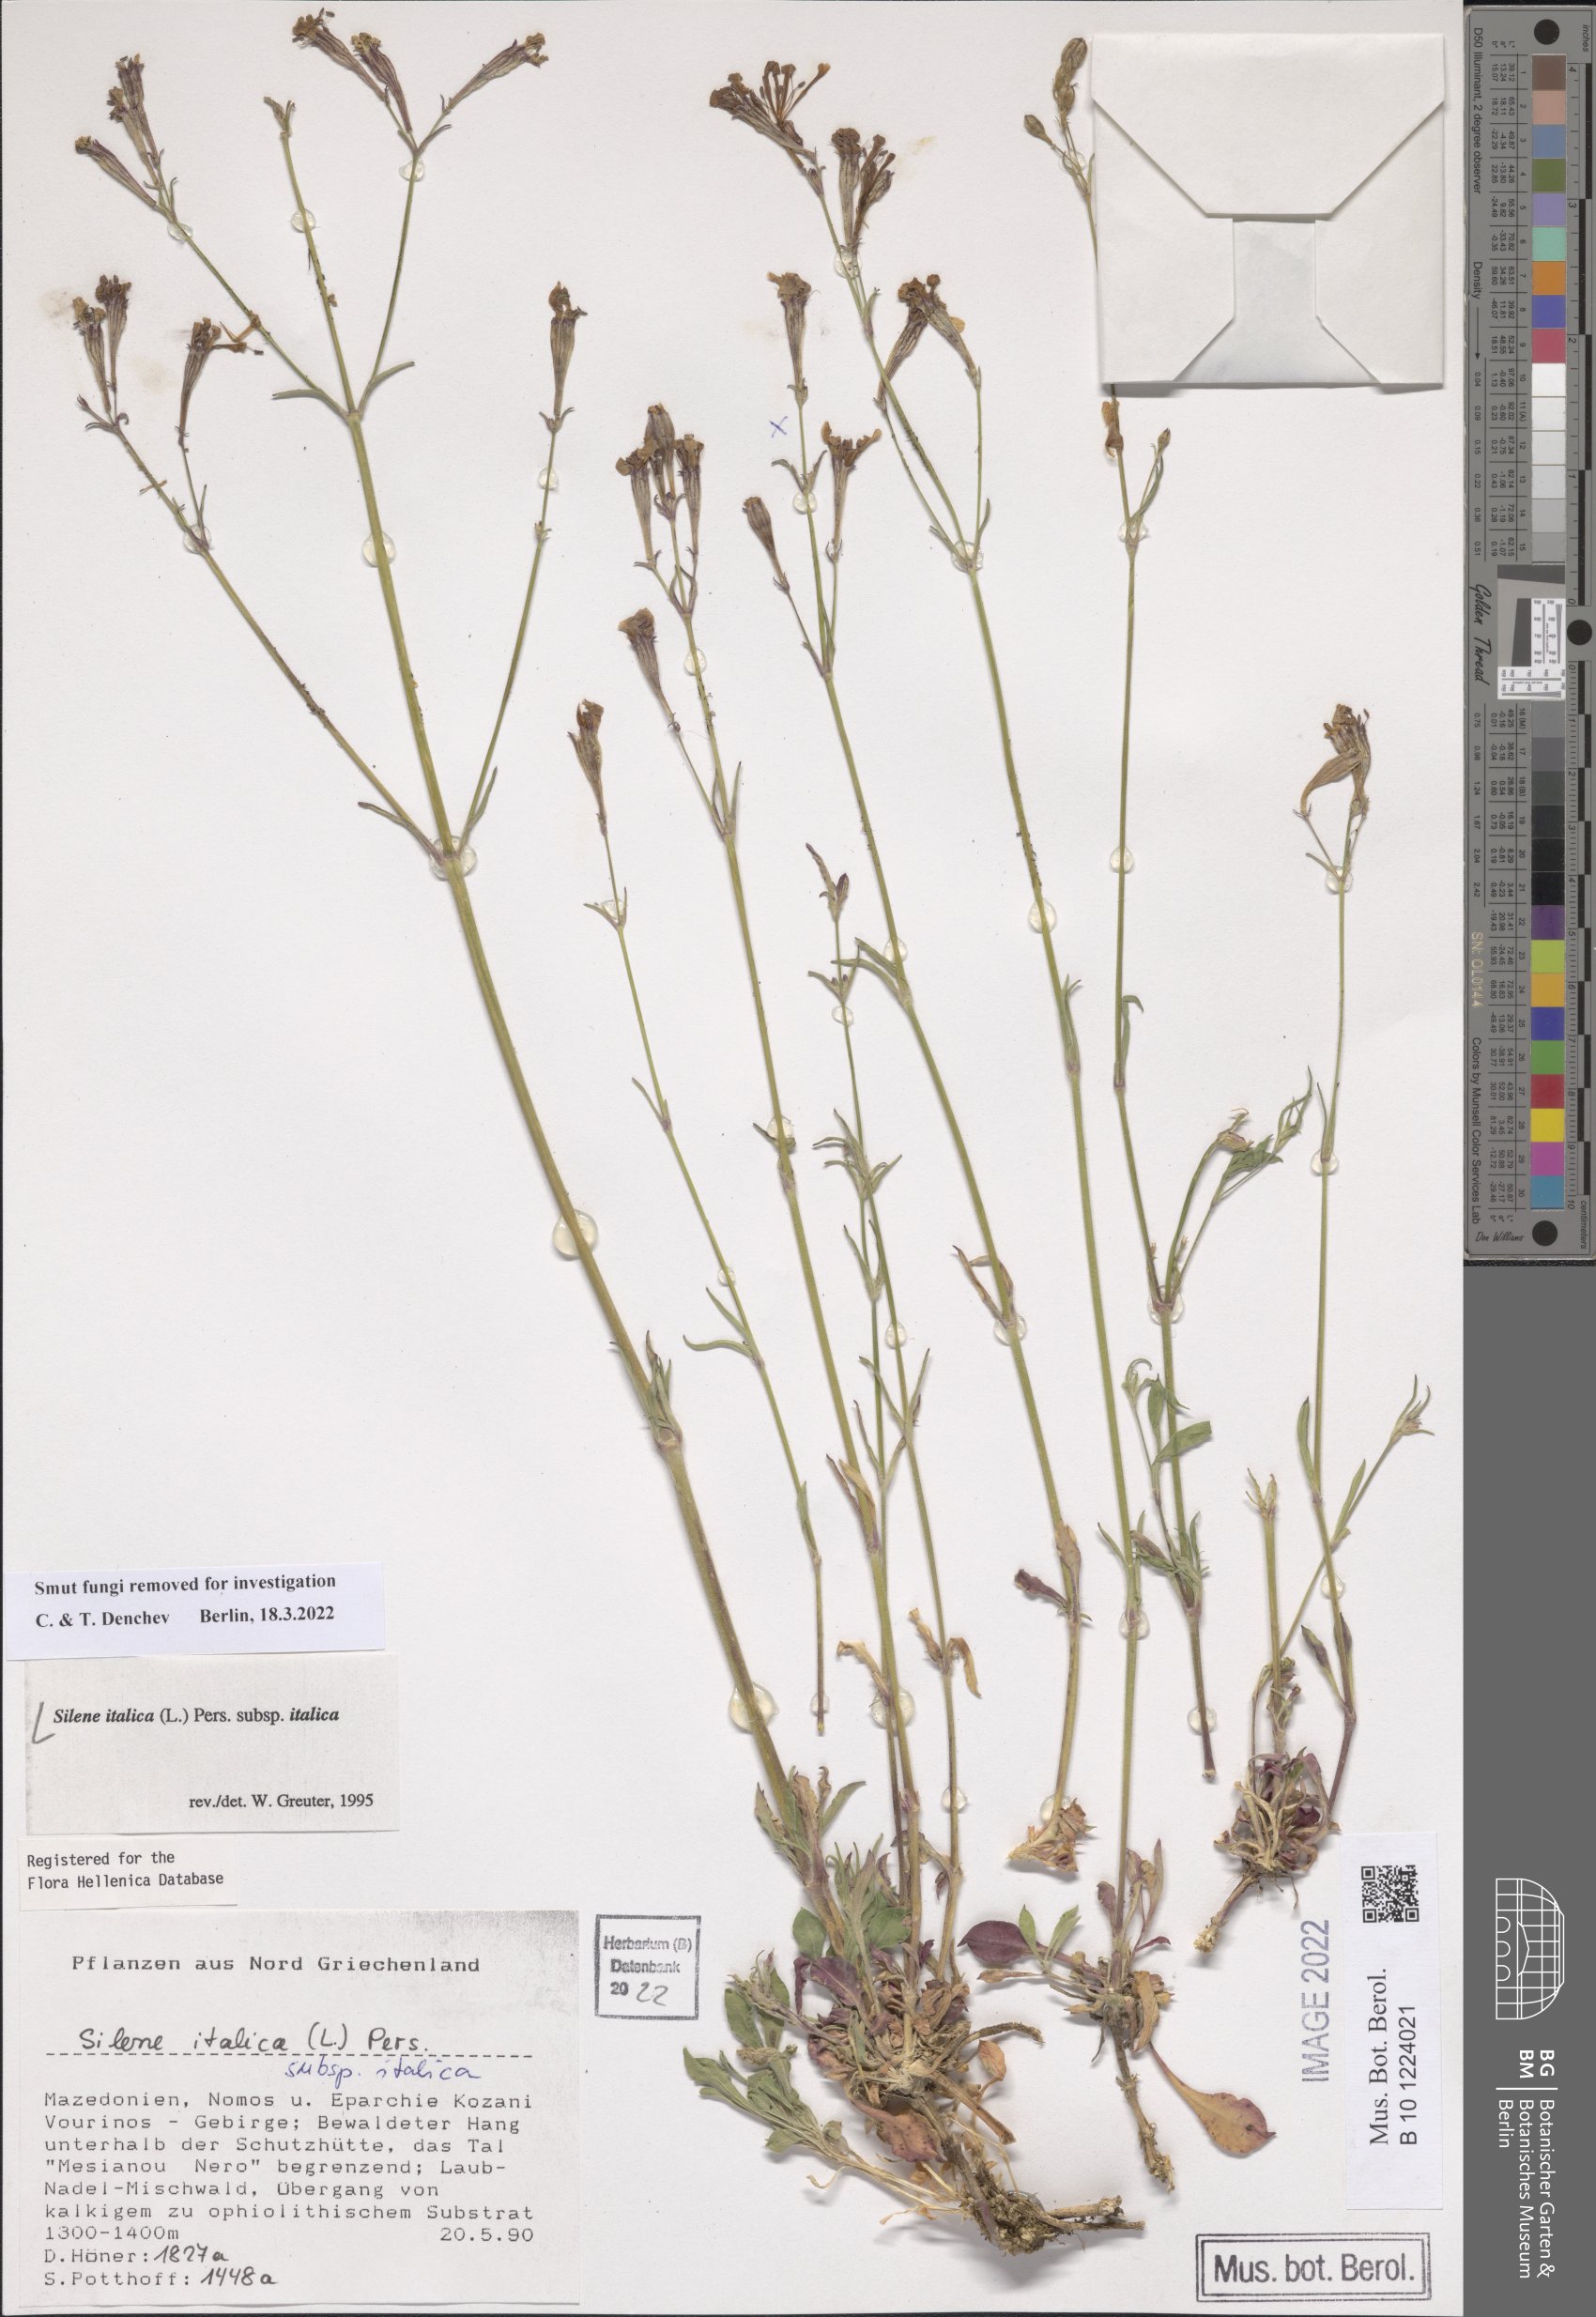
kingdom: Plantae
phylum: Tracheophyta
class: Magnoliopsida
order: Caryophyllales
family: Caryophyllaceae
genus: Silene
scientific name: Silene italica
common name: Italian catchfly
